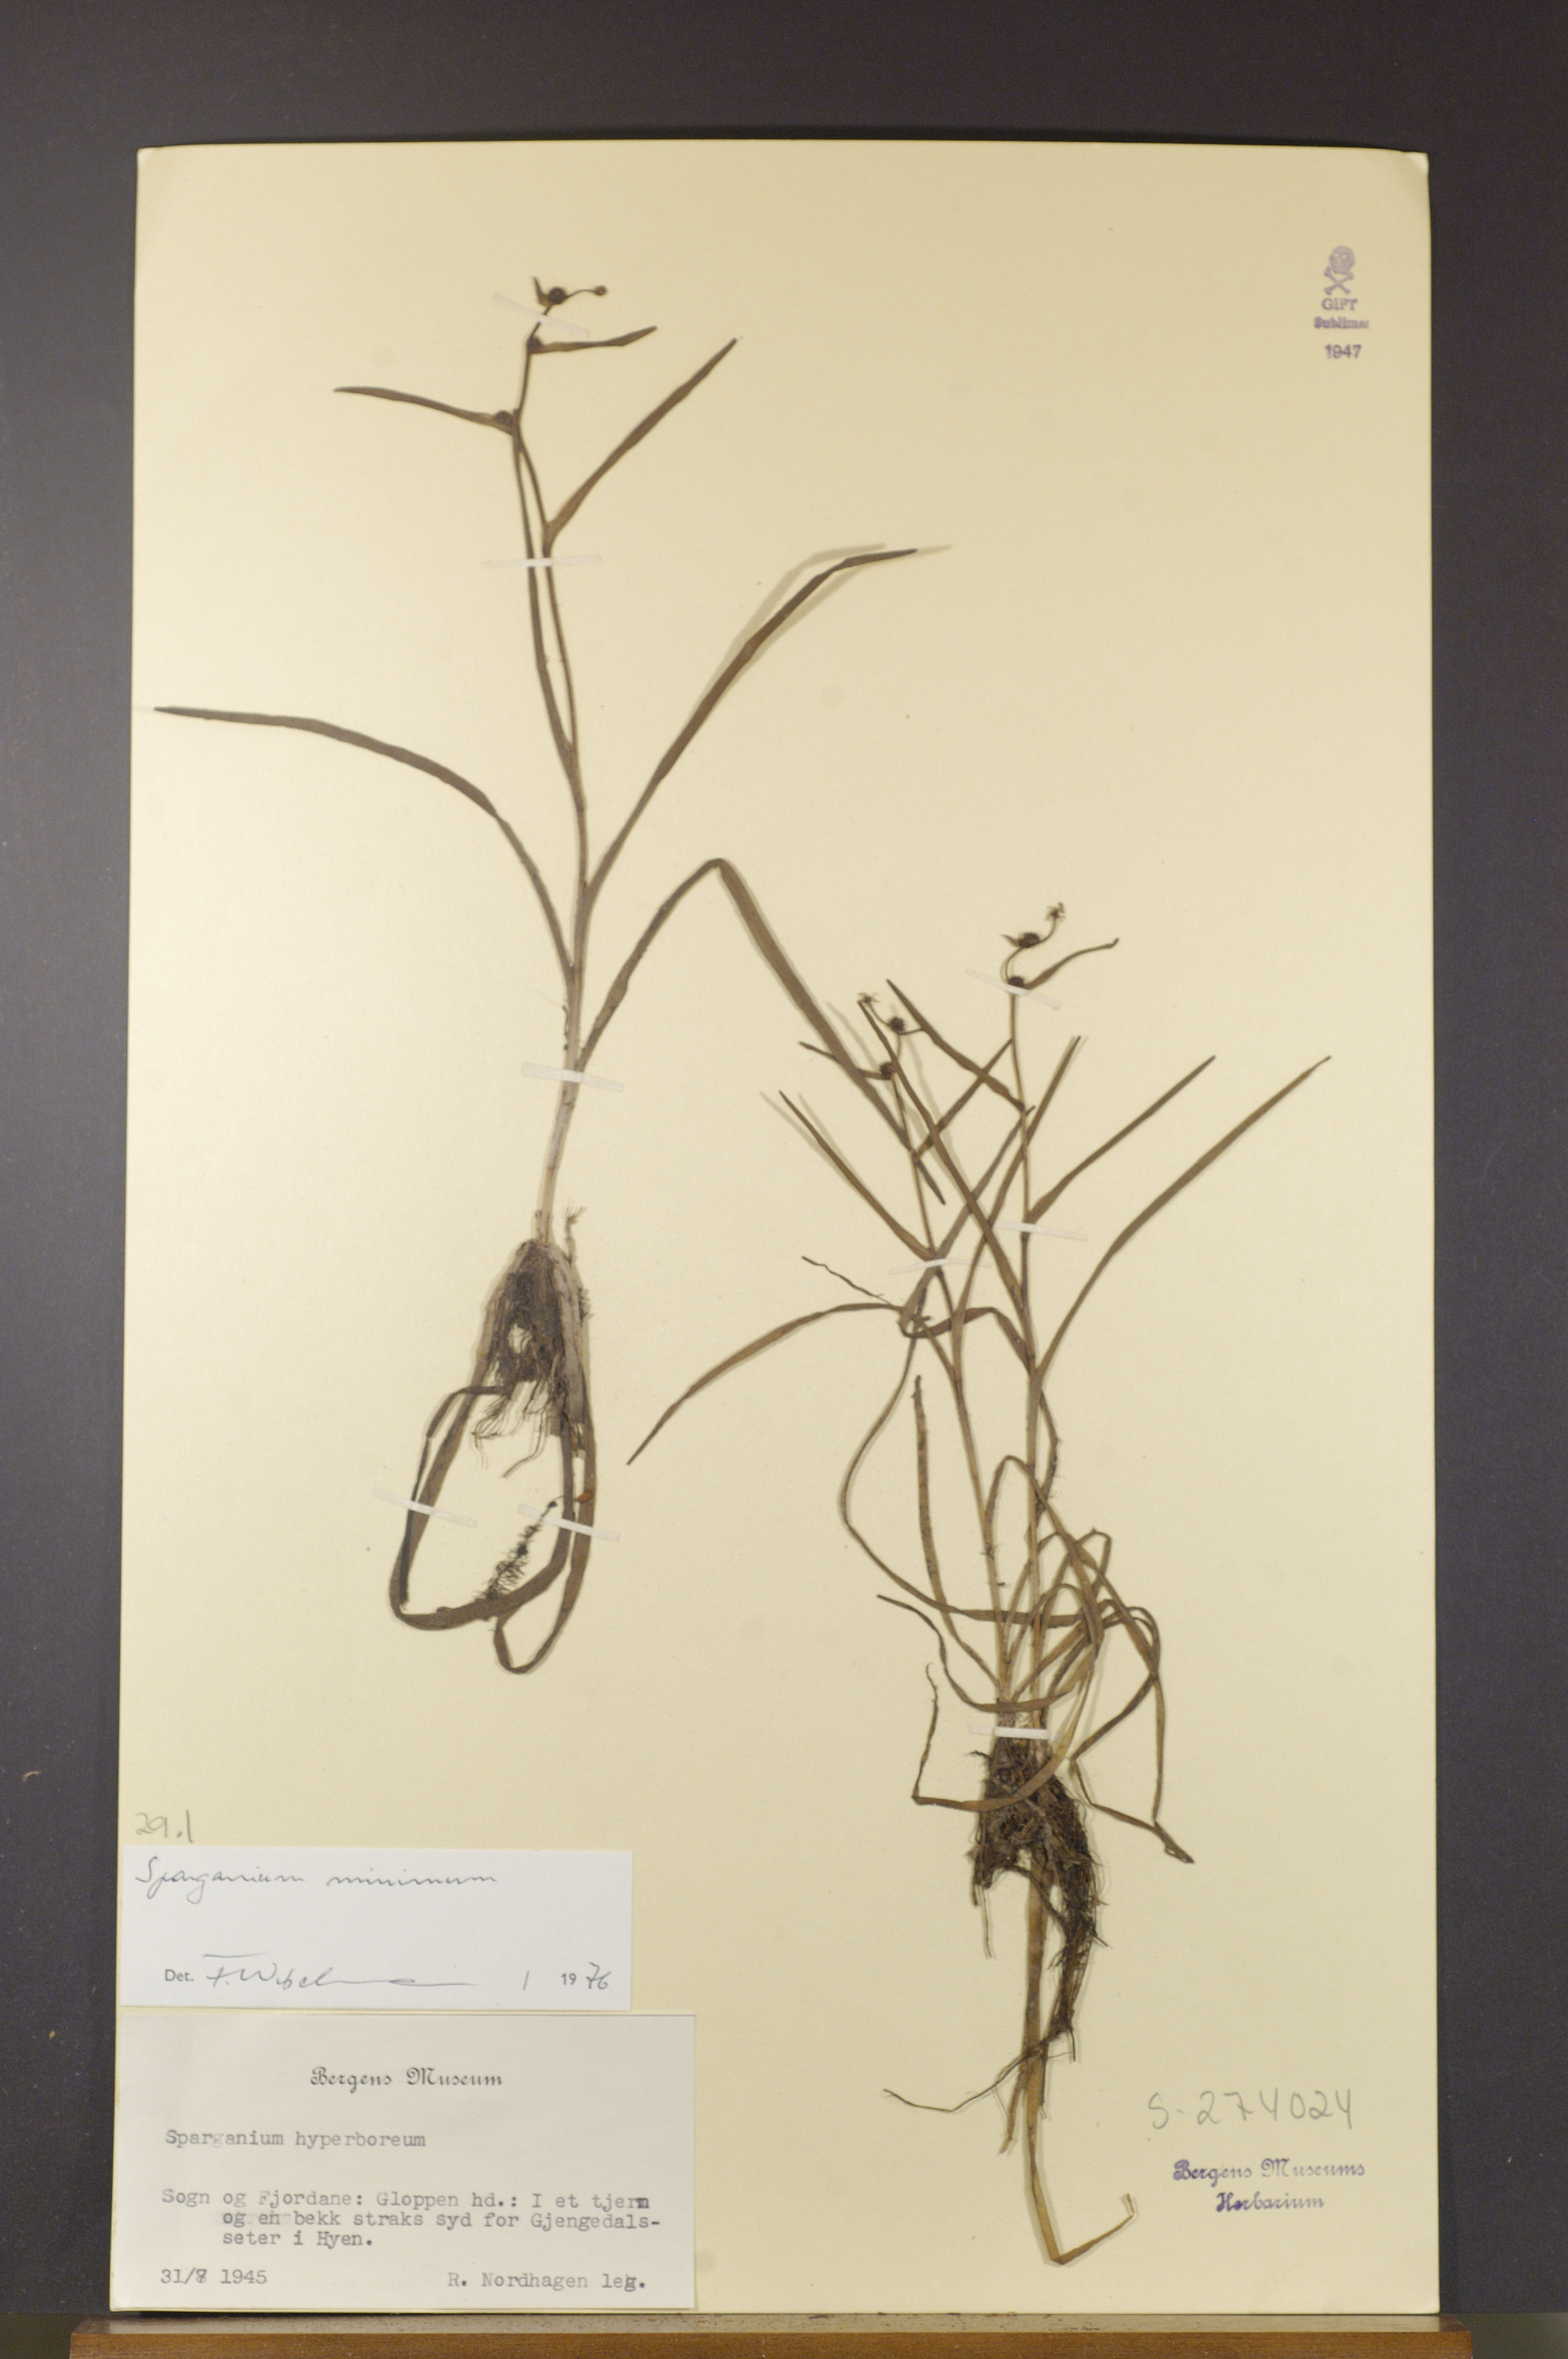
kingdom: Plantae
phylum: Tracheophyta
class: Liliopsida
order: Poales
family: Typhaceae
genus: Sparganium
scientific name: Sparganium natans
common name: Least bur-reed
